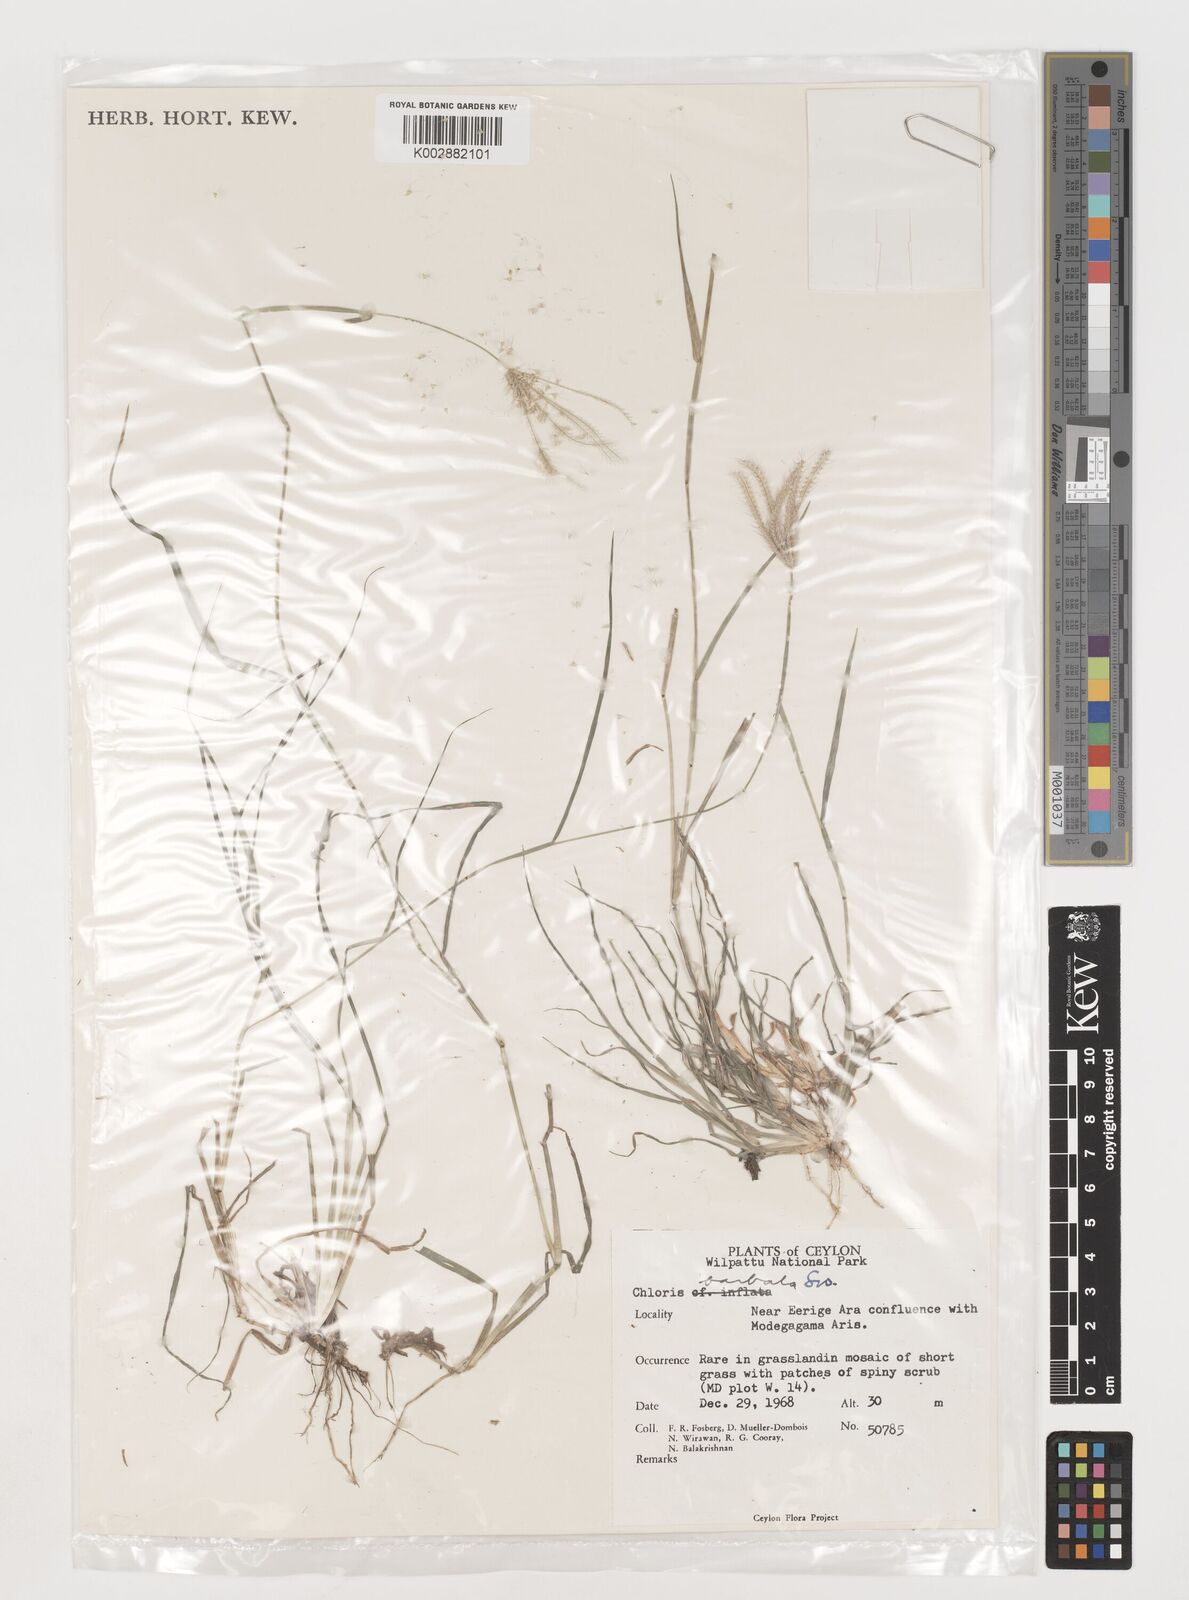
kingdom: Plantae
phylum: Tracheophyta
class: Liliopsida
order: Poales
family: Poaceae
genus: Chloris
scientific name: Chloris barbata
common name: Swollen fingergrass
